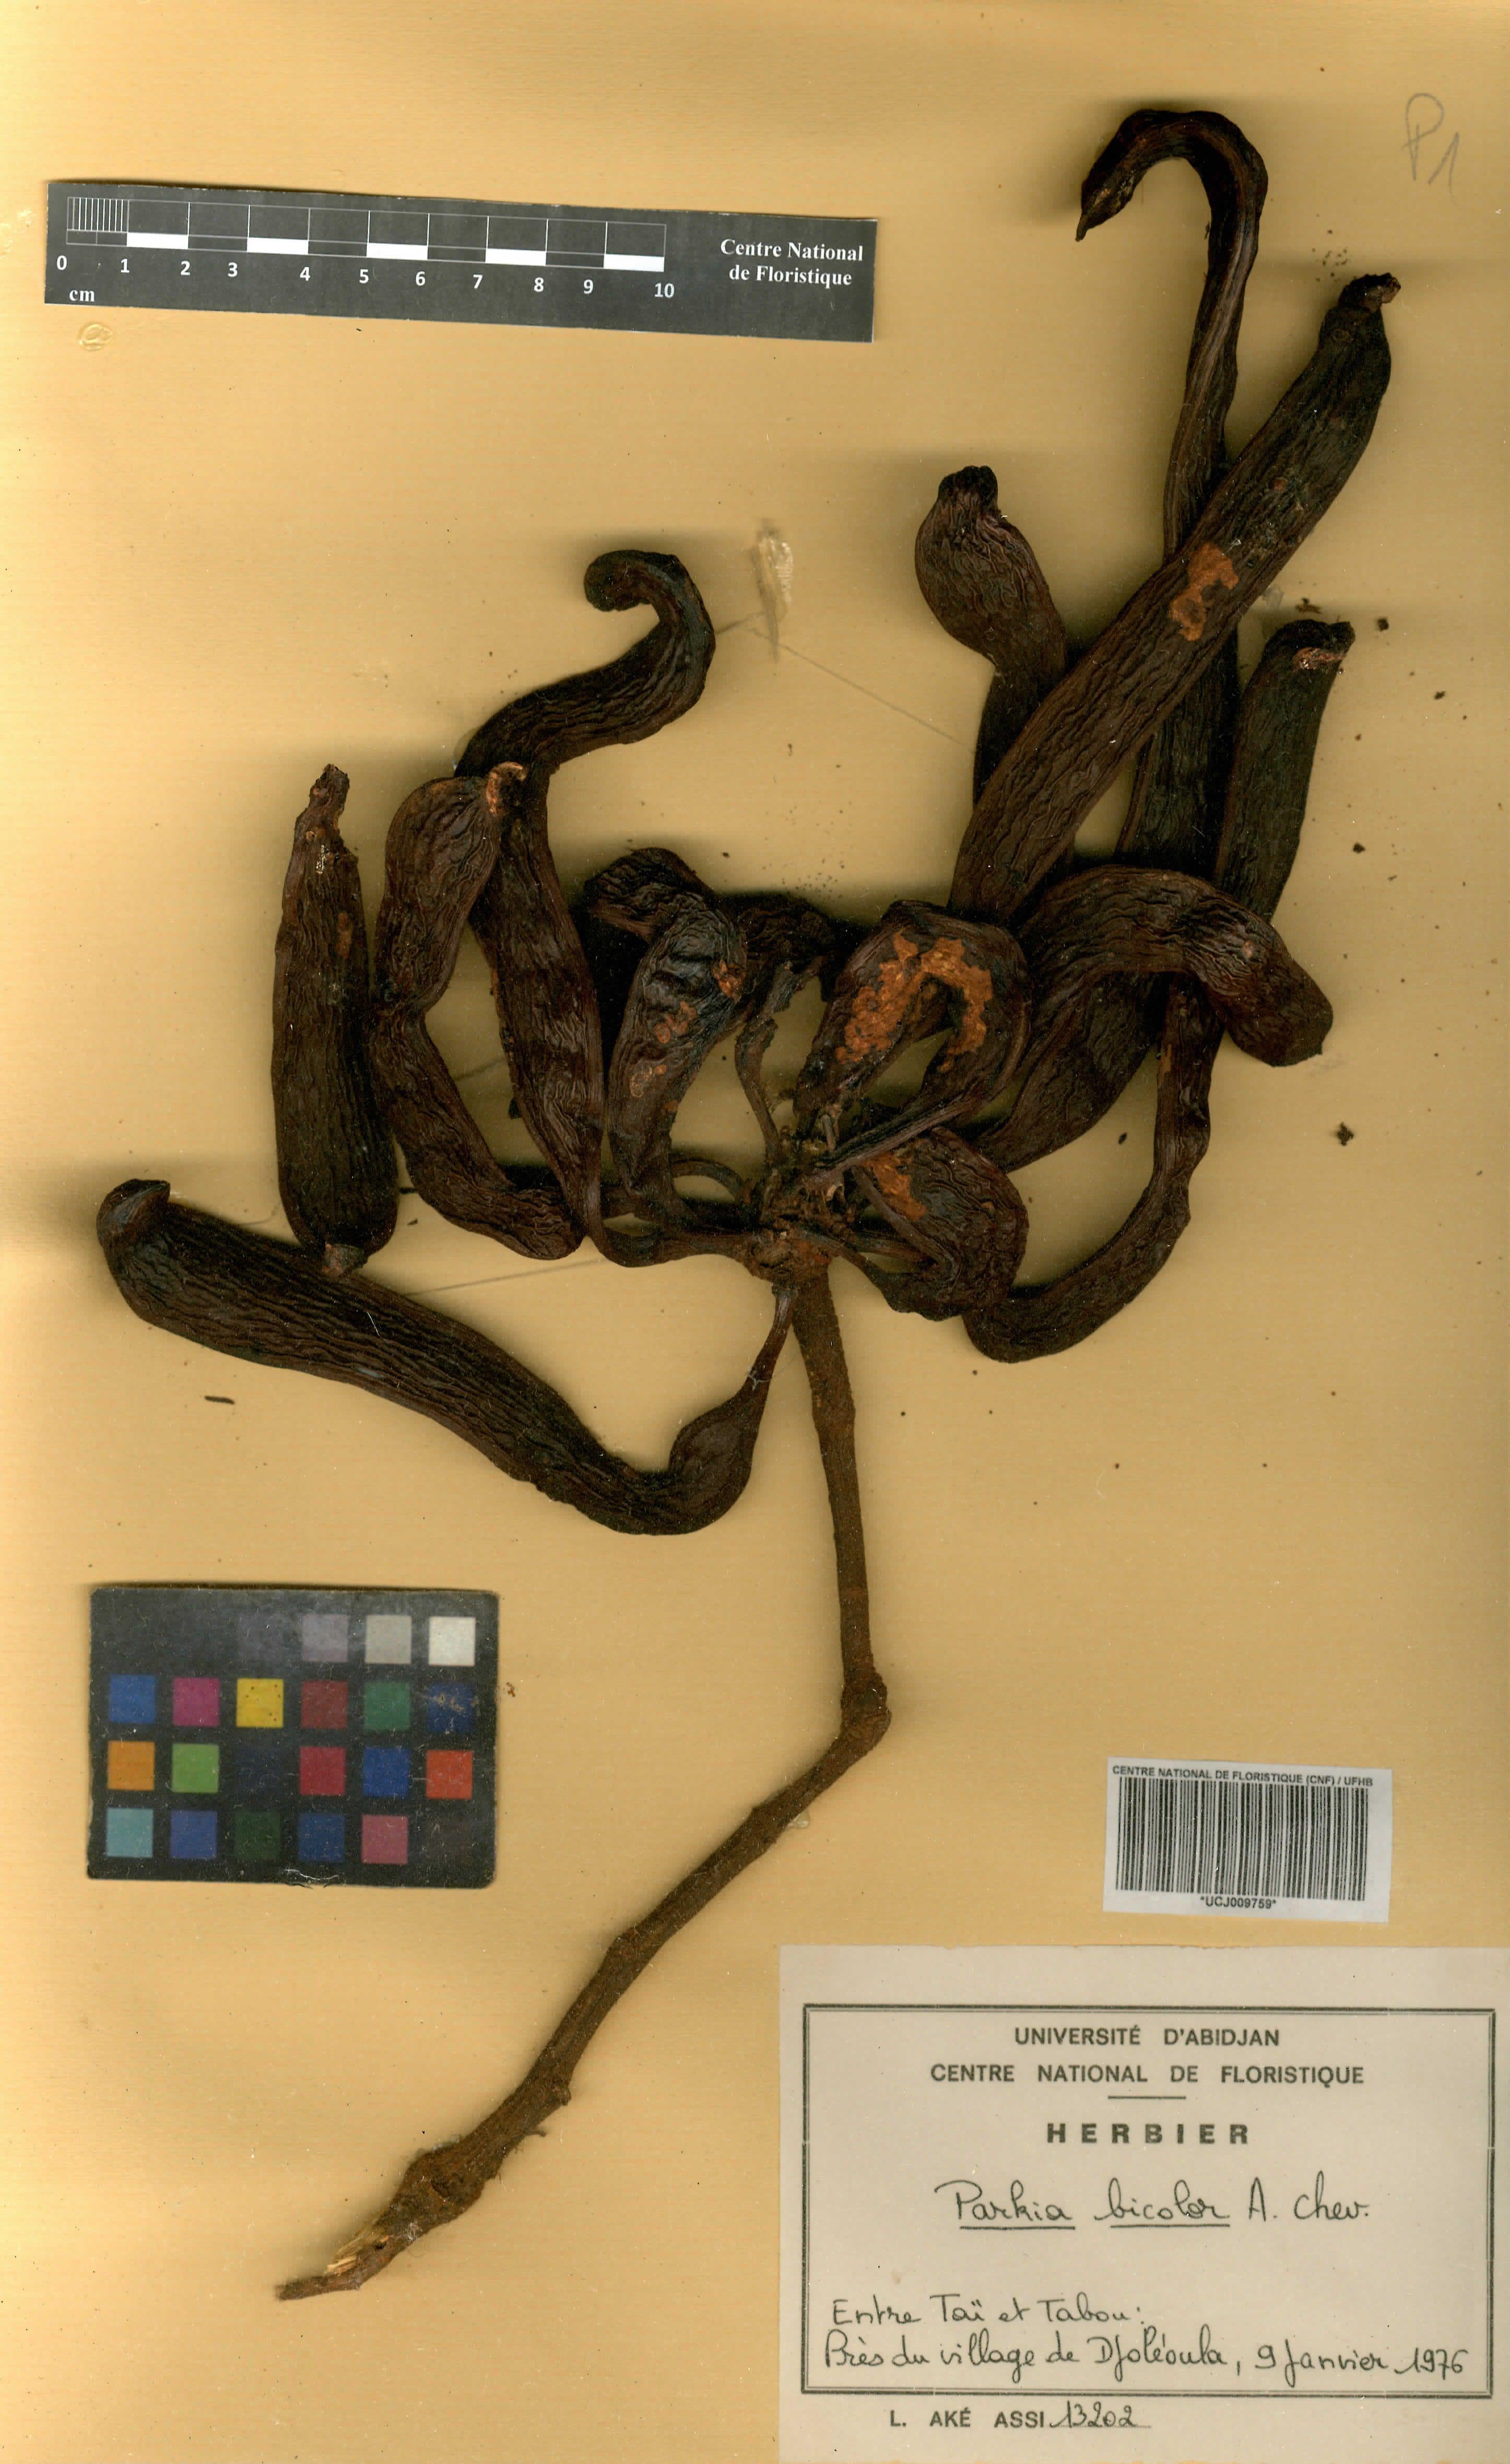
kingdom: Plantae
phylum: Tracheophyta
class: Magnoliopsida
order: Fabales
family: Fabaceae
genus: Parkia
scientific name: Parkia bicolor
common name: African locust-bean
